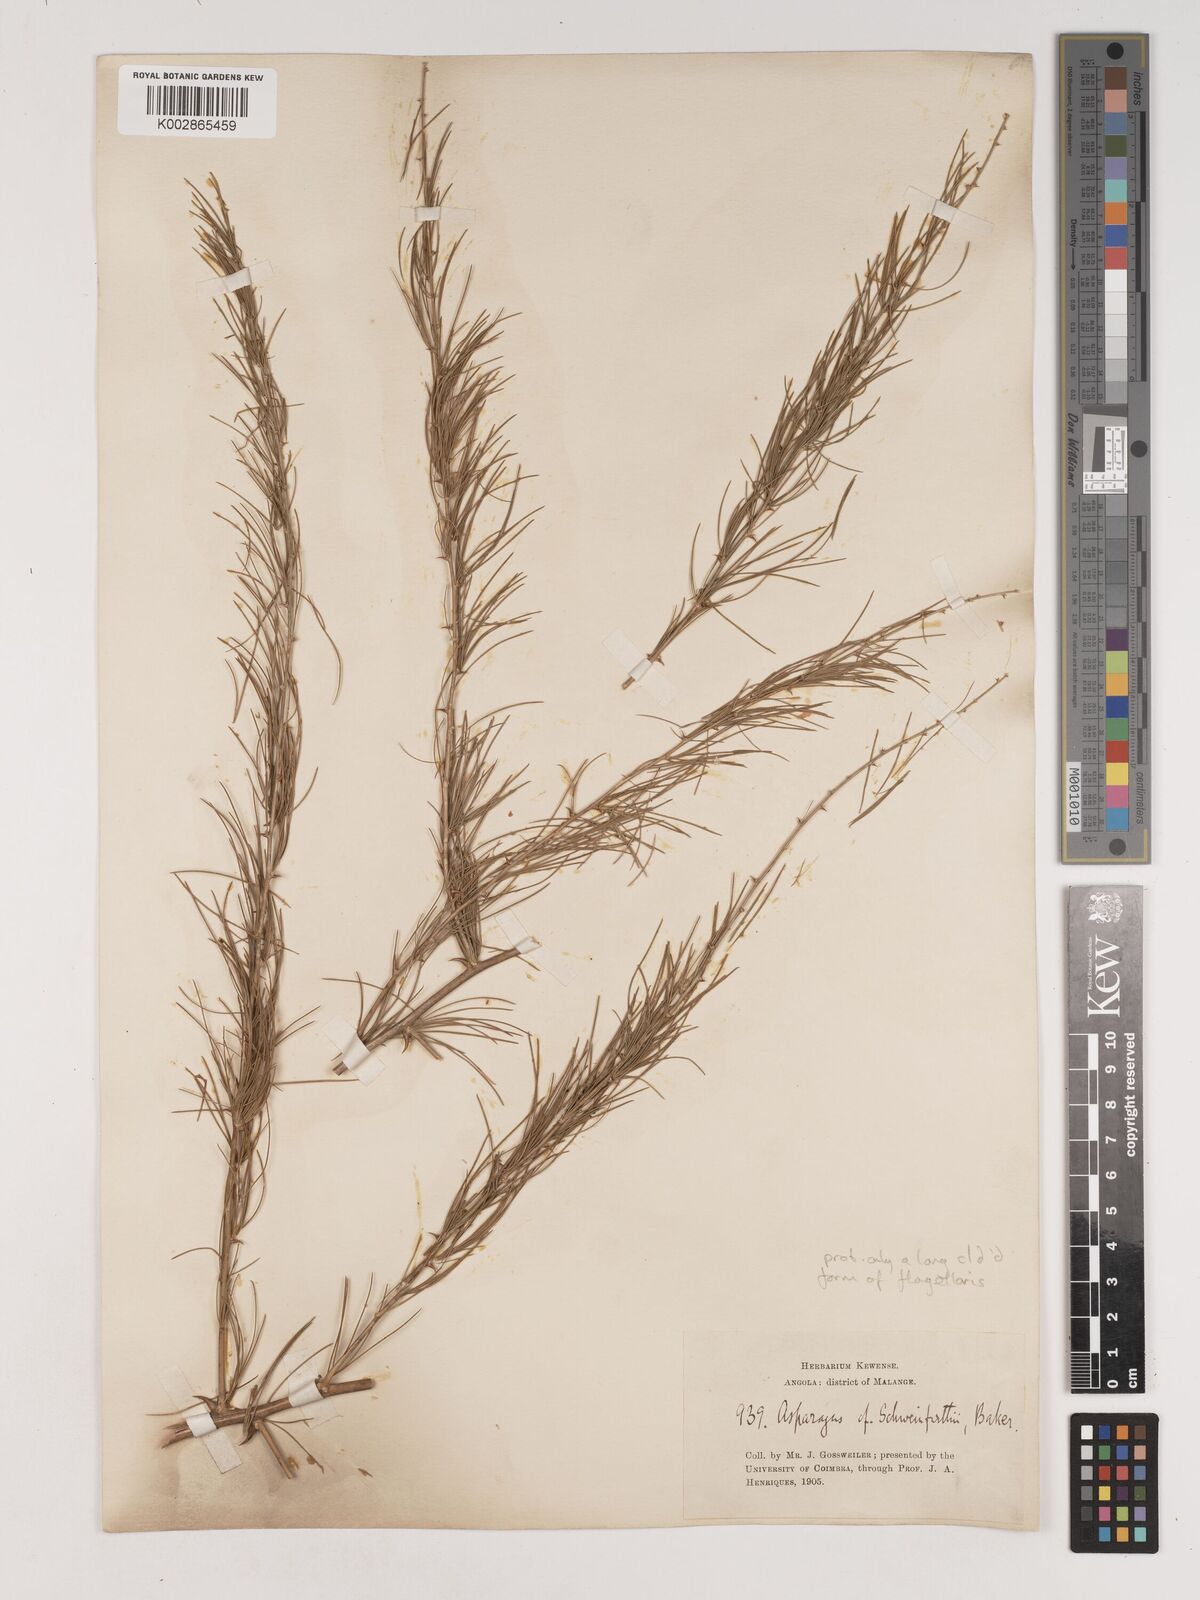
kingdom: Plantae
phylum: Tracheophyta
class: Liliopsida
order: Asparagales
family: Asparagaceae
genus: Asparagus
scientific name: Asparagus flagellaris
